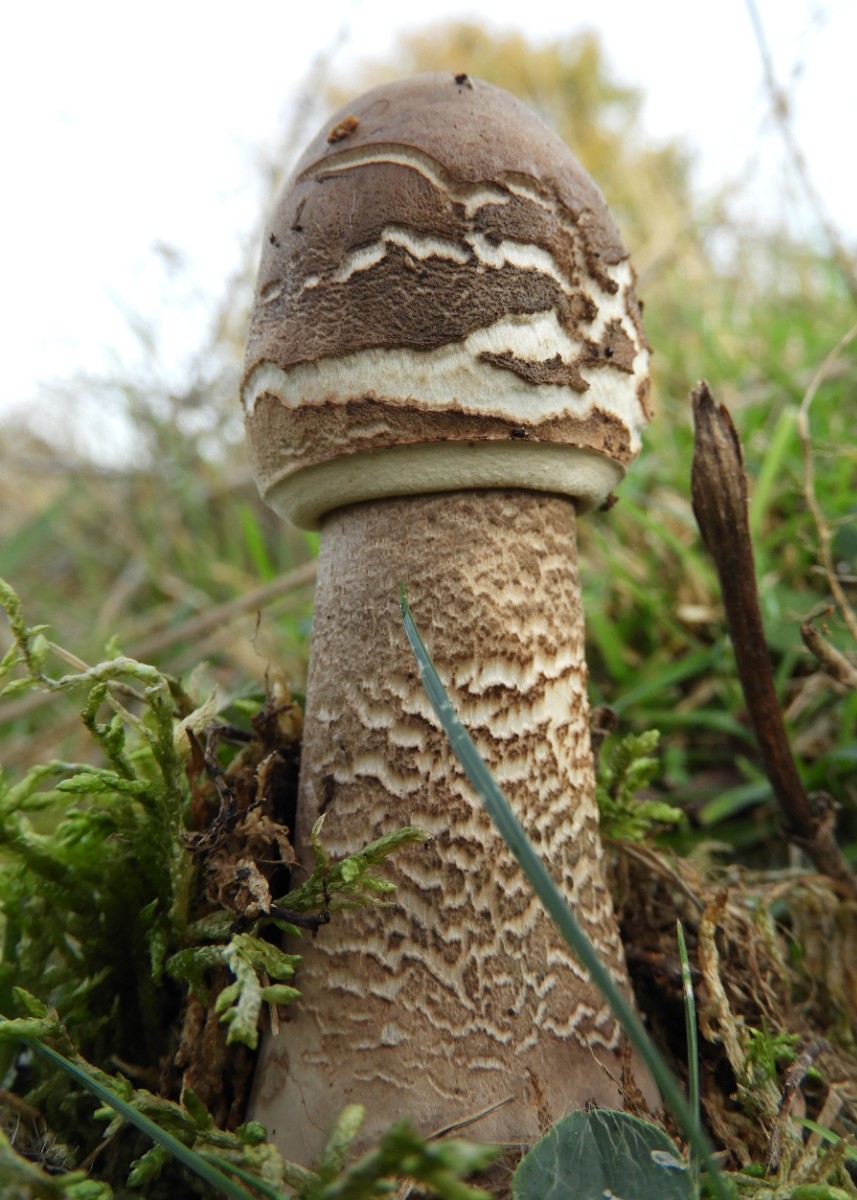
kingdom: Fungi
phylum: Basidiomycota
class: Agaricomycetes
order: Agaricales
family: Agaricaceae
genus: Macrolepiota
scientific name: Macrolepiota procera
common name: stor kæmpeparasolhat
